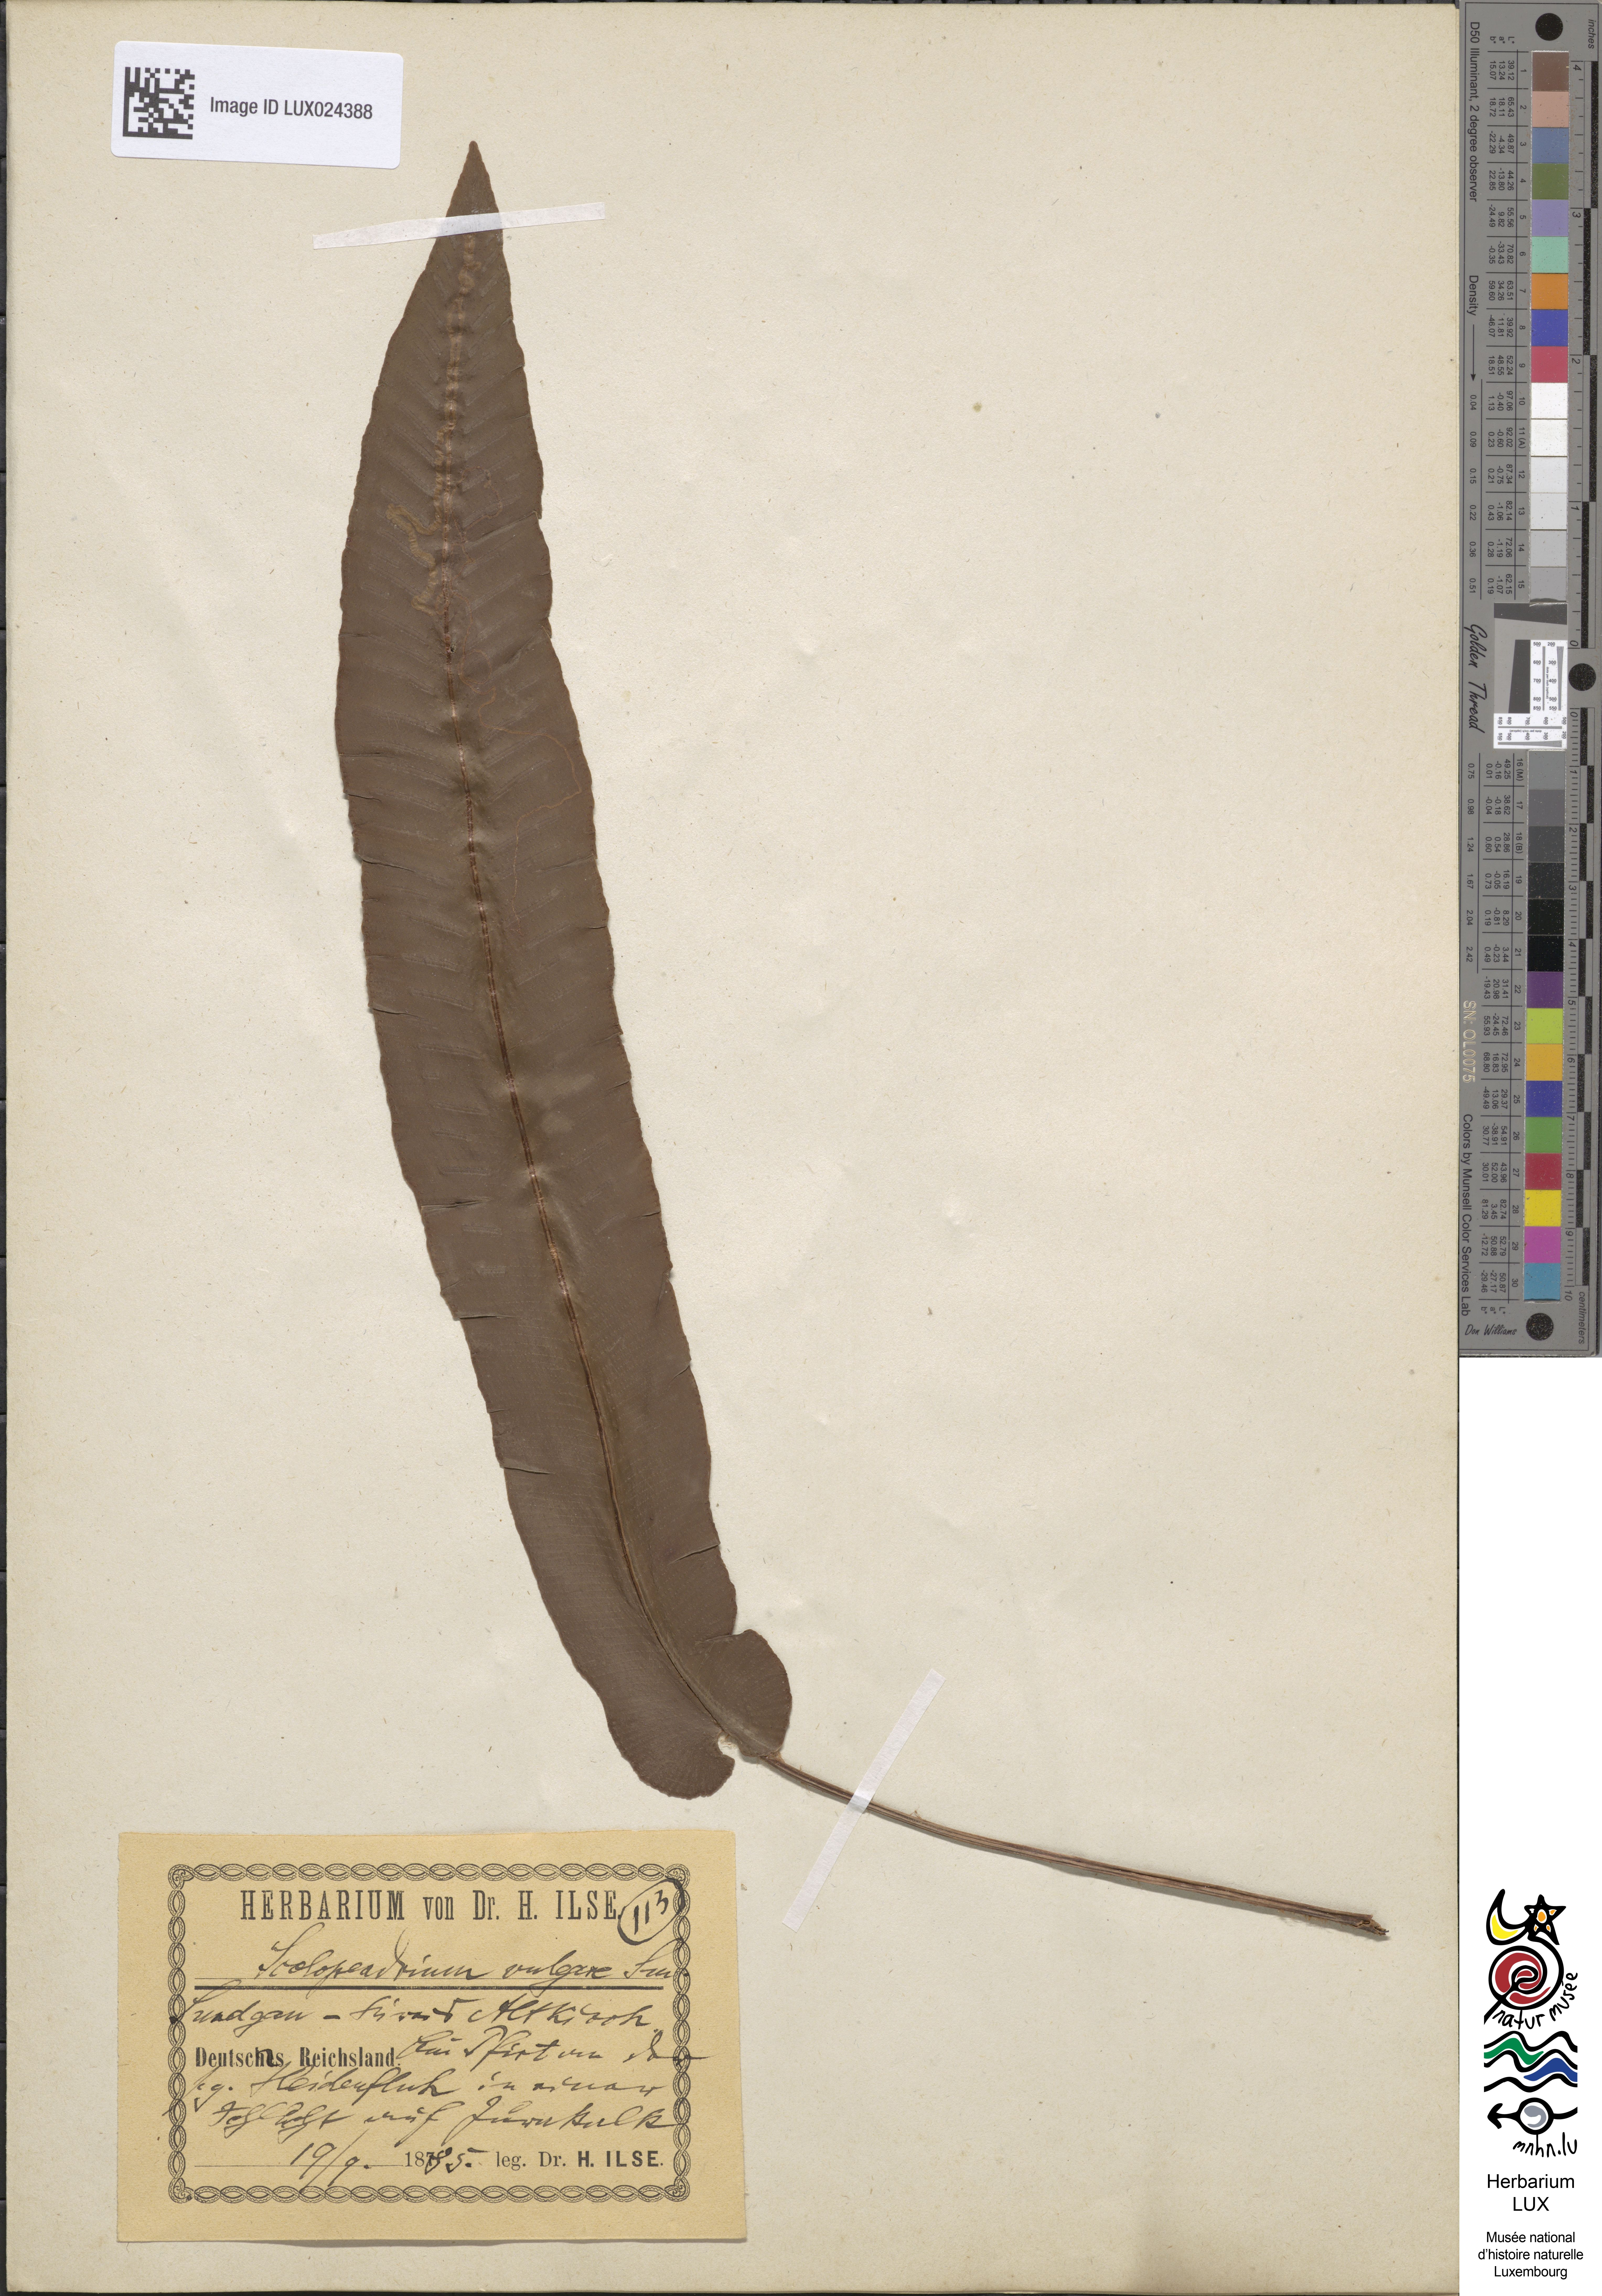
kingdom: Plantae
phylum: Tracheophyta
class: Polypodiopsida
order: Polypodiales
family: Aspleniaceae
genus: Asplenium
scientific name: Asplenium scolopendrium
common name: Hart's-tongue fern
